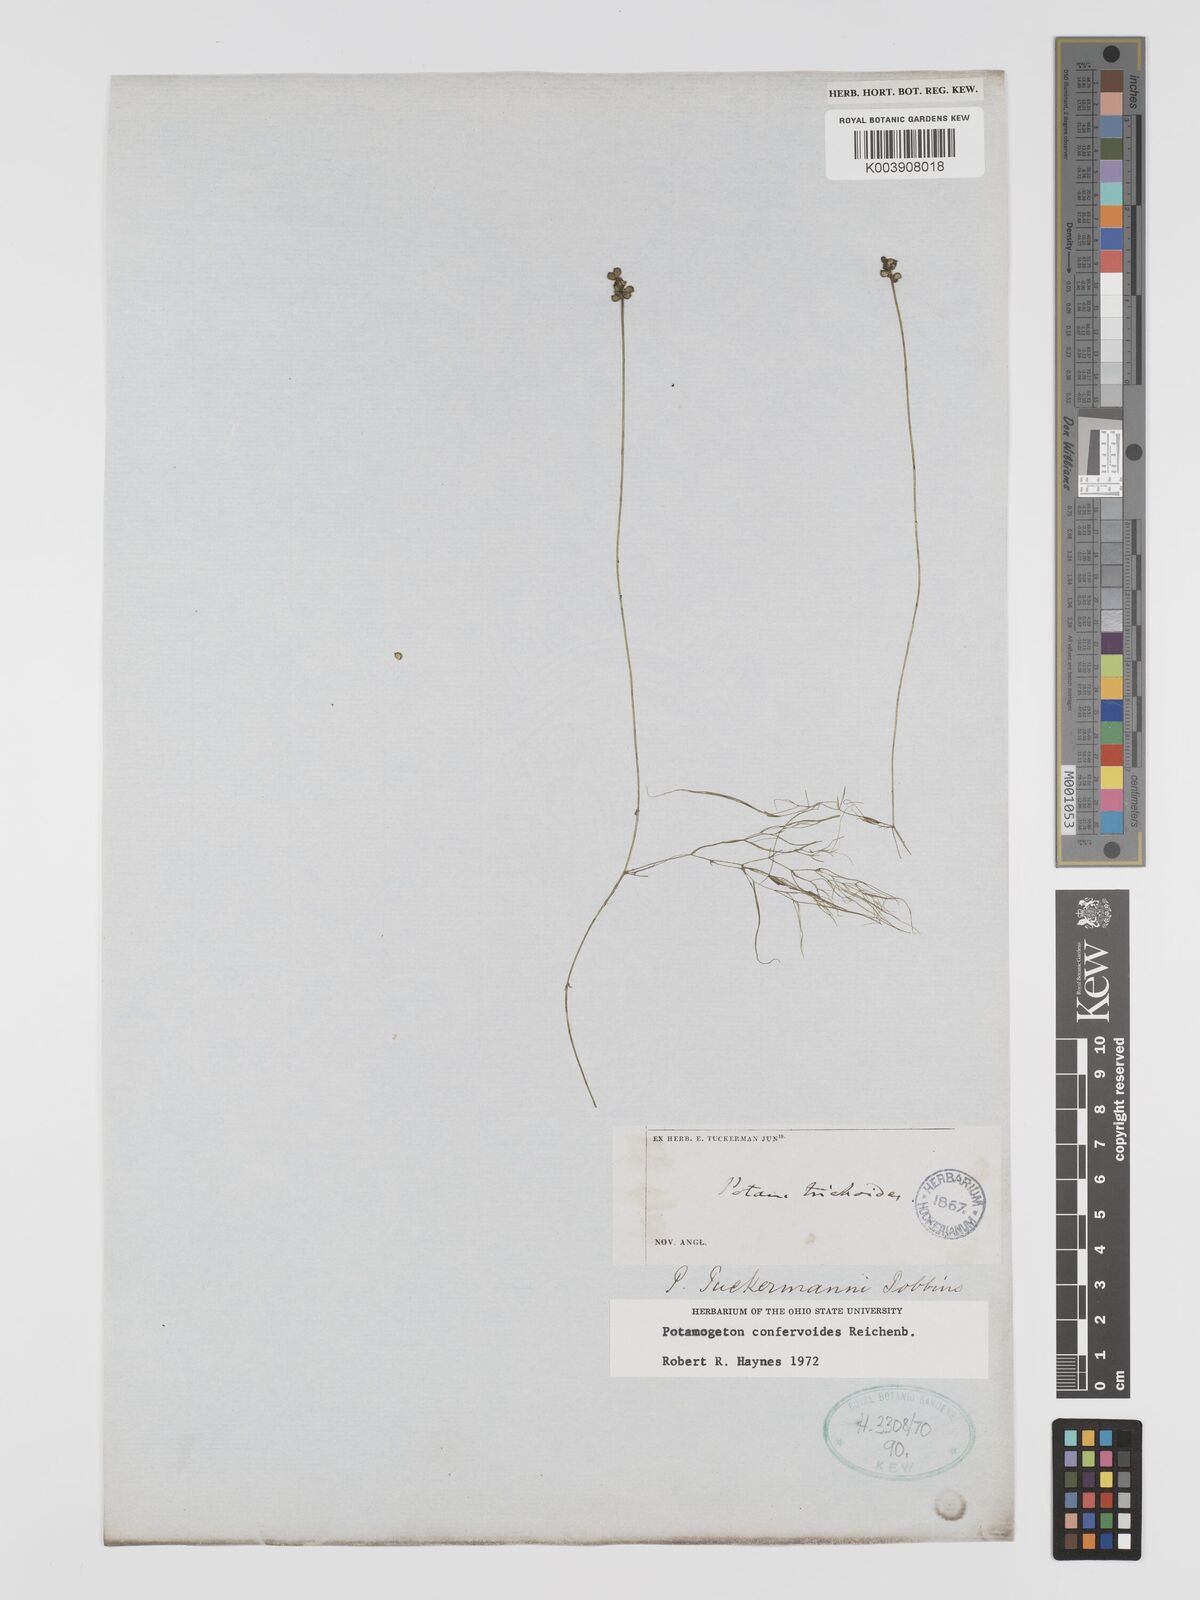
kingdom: Plantae
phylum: Tracheophyta
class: Liliopsida
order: Alismatales
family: Potamogetonaceae
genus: Potamogeton
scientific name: Potamogeton confervoides
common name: Alga pondweed
